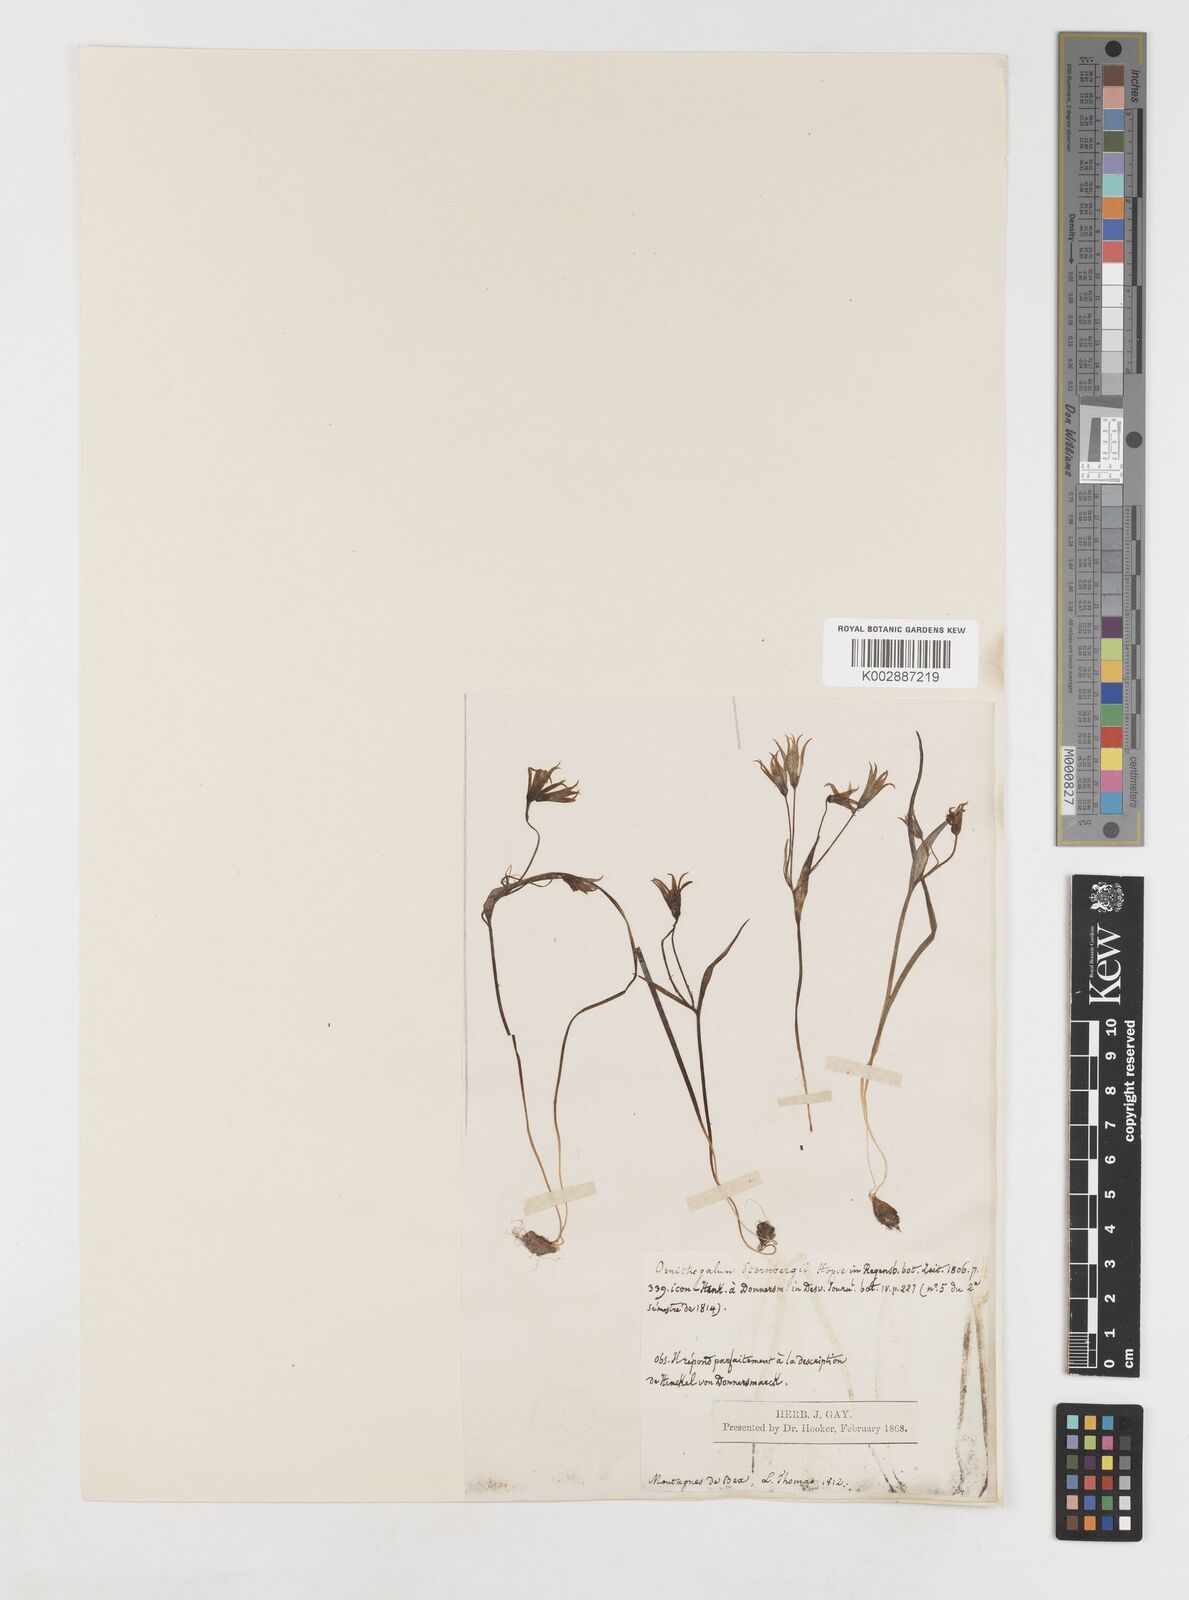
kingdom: Plantae
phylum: Tracheophyta
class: Liliopsida
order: Liliales
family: Liliaceae
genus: Gagea
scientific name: Gagea minima
